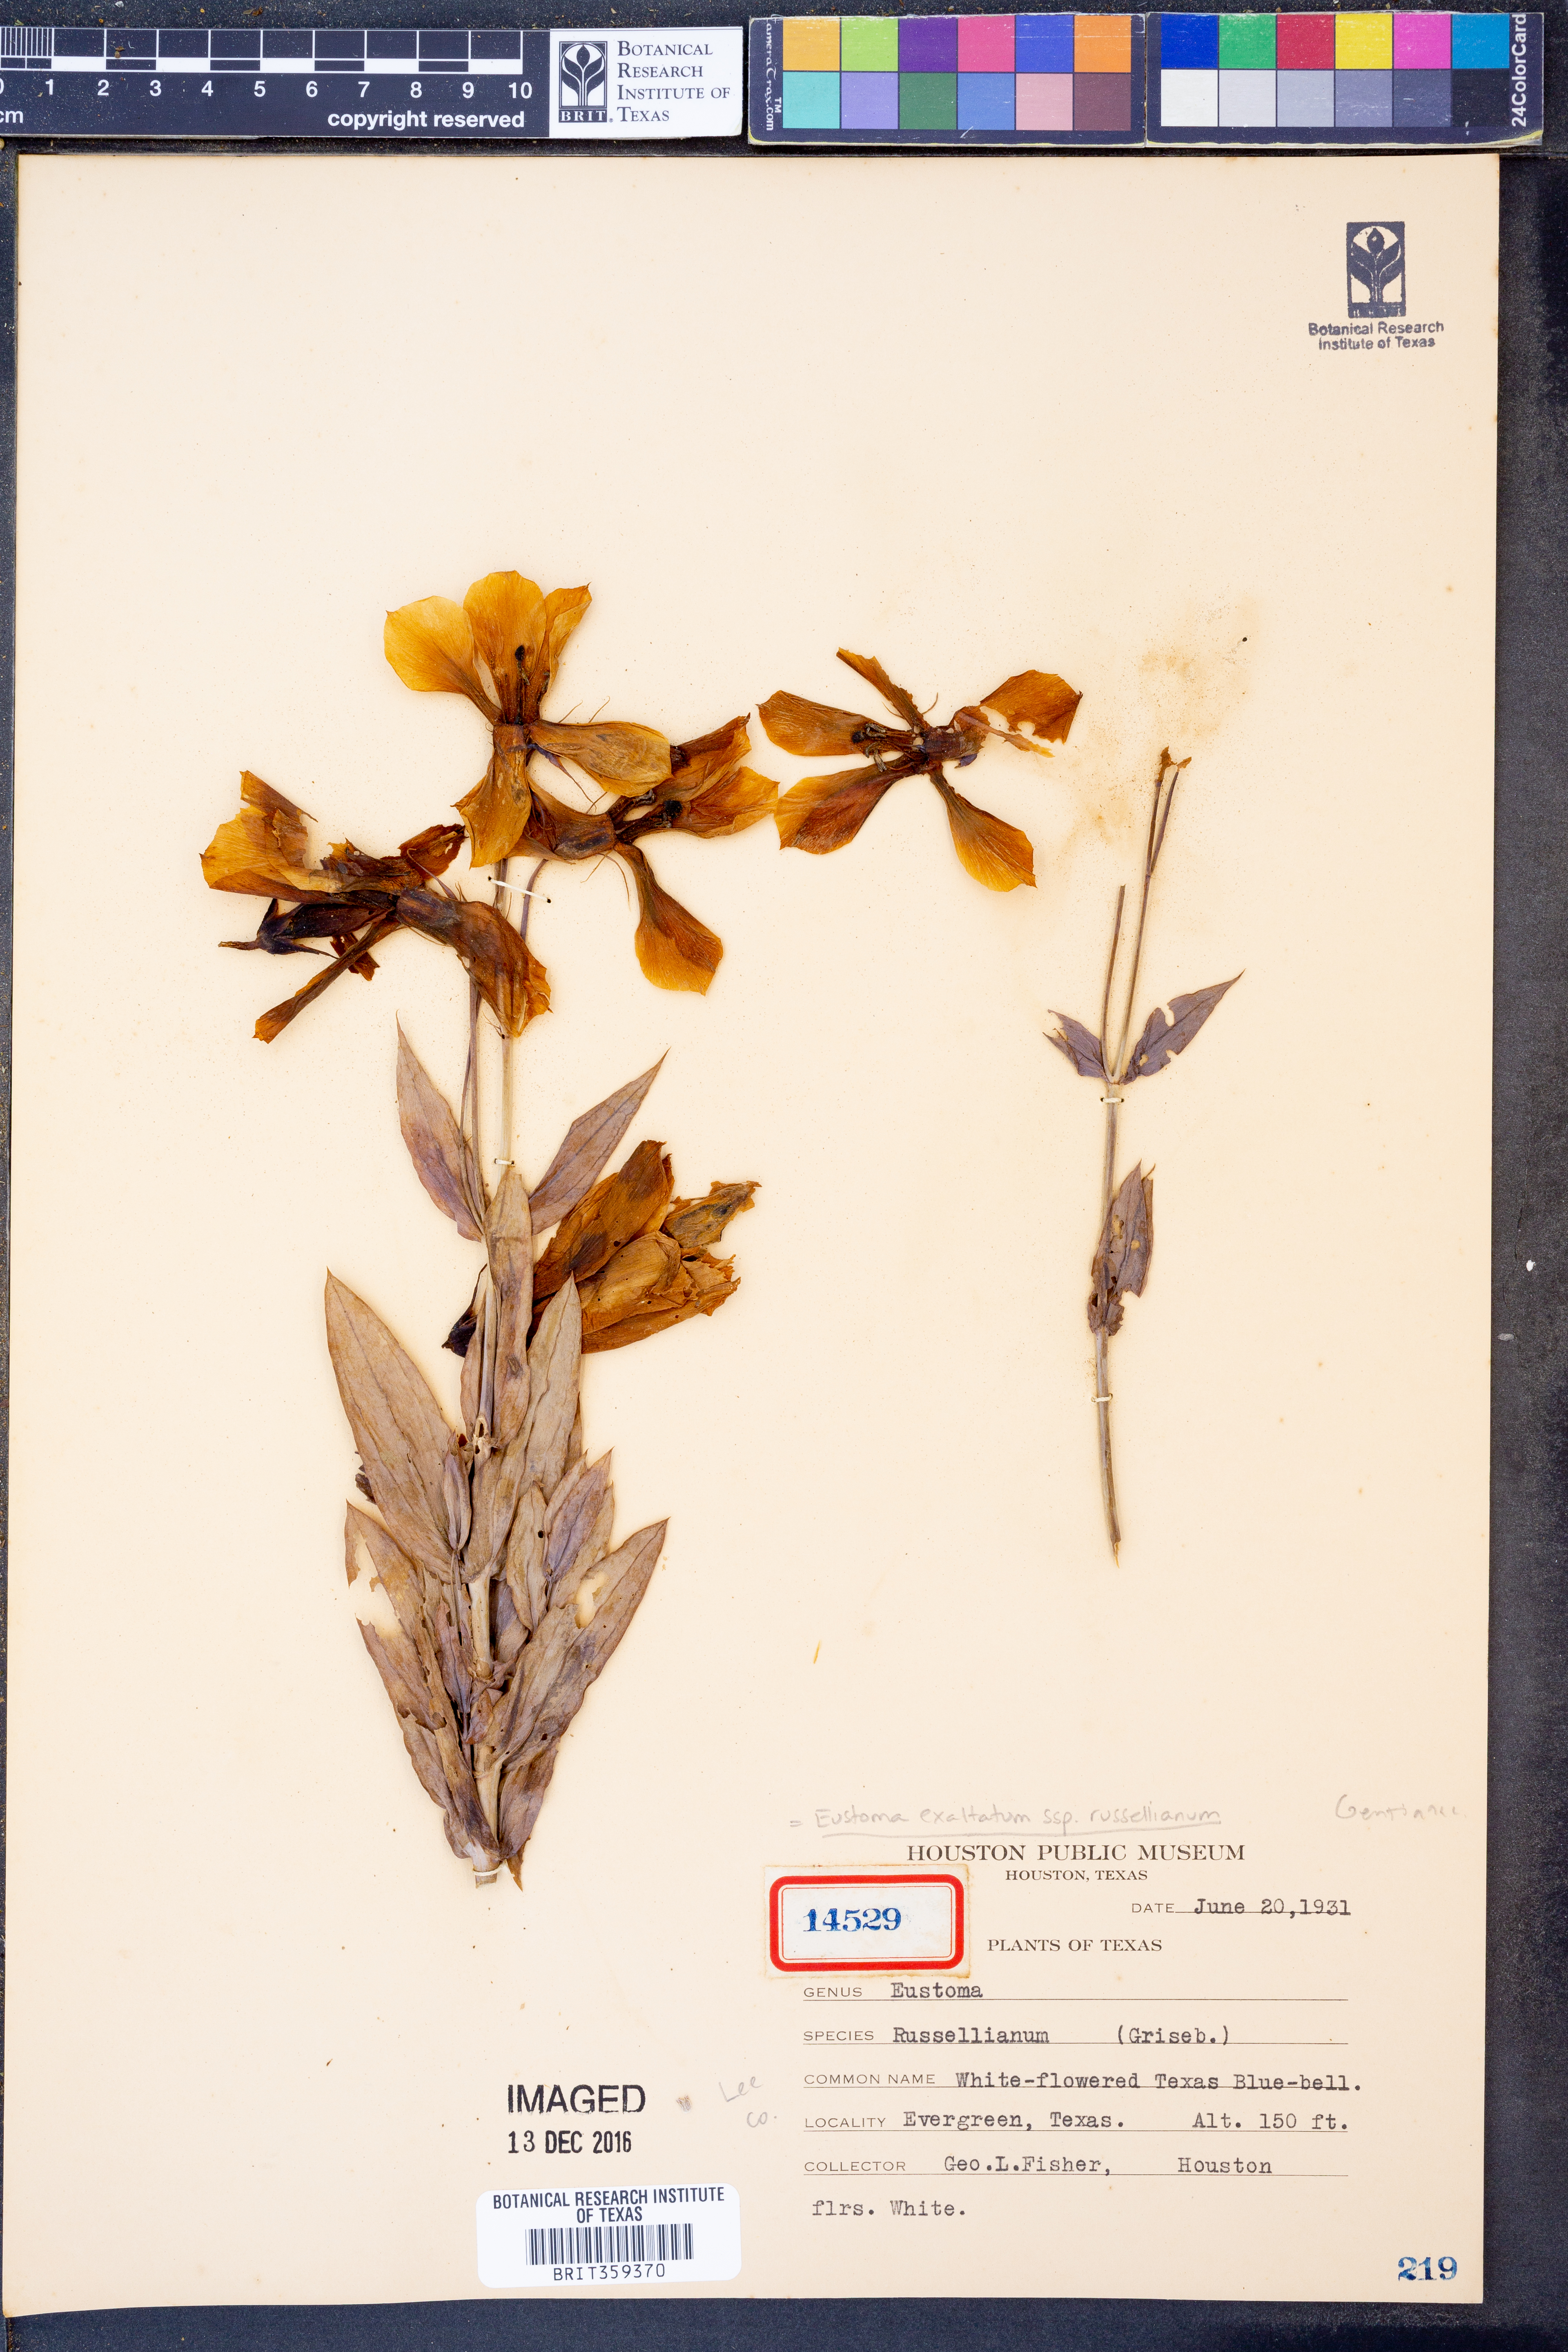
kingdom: Plantae
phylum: Tracheophyta
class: Magnoliopsida
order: Gentianales
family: Gentianaceae
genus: Eustoma
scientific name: Eustoma russellianum
